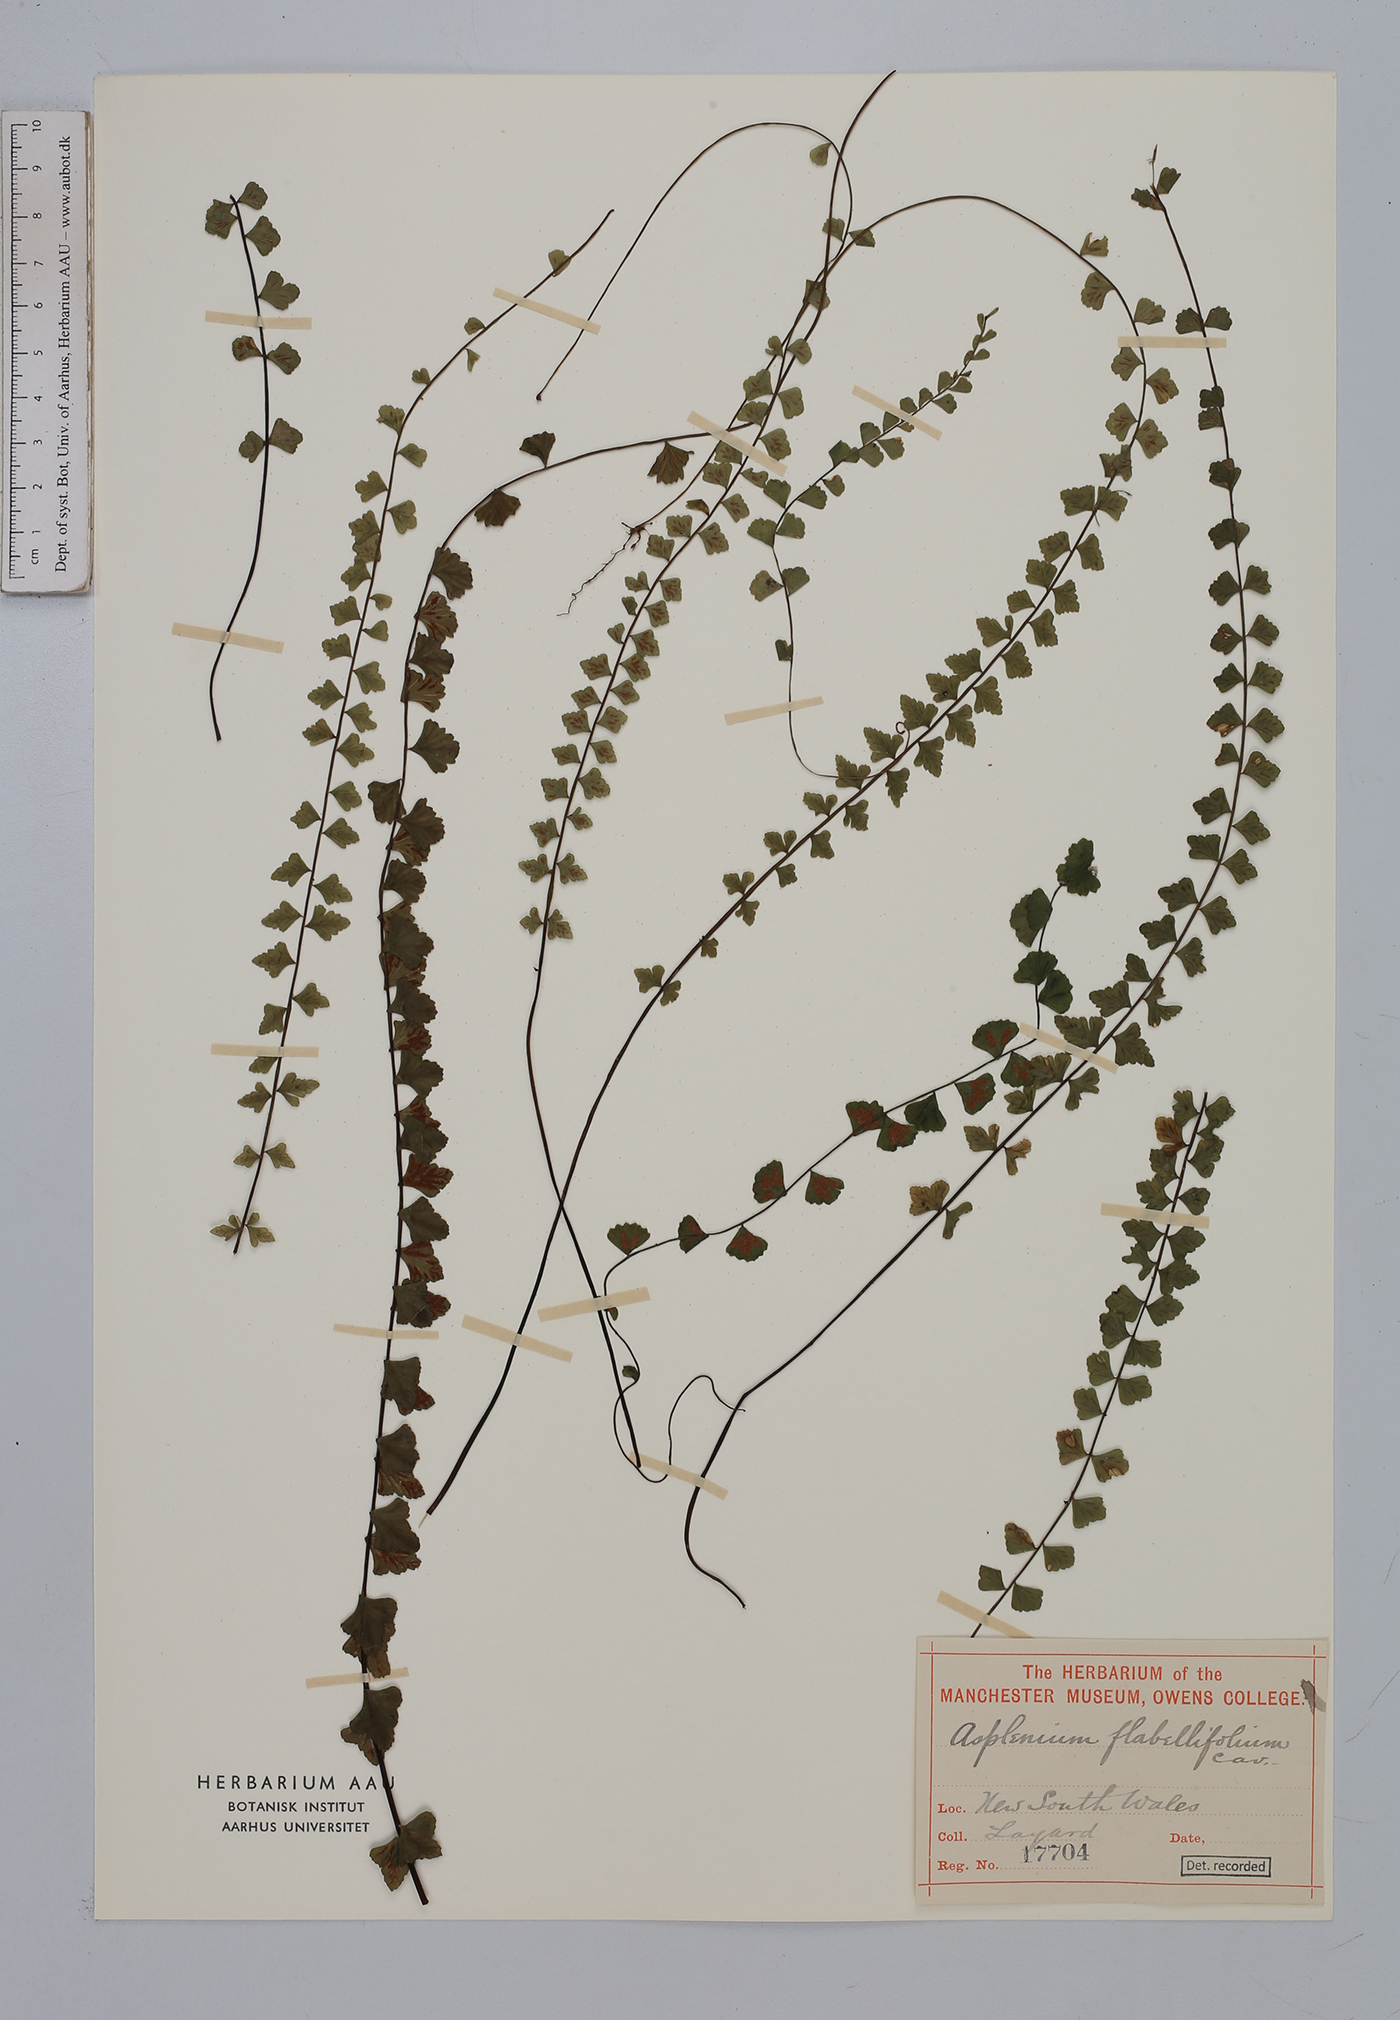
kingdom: Plantae
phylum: Tracheophyta
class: Polypodiopsida
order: Polypodiales
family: Aspleniaceae
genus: Asplenium
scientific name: Asplenium flabellifolium
